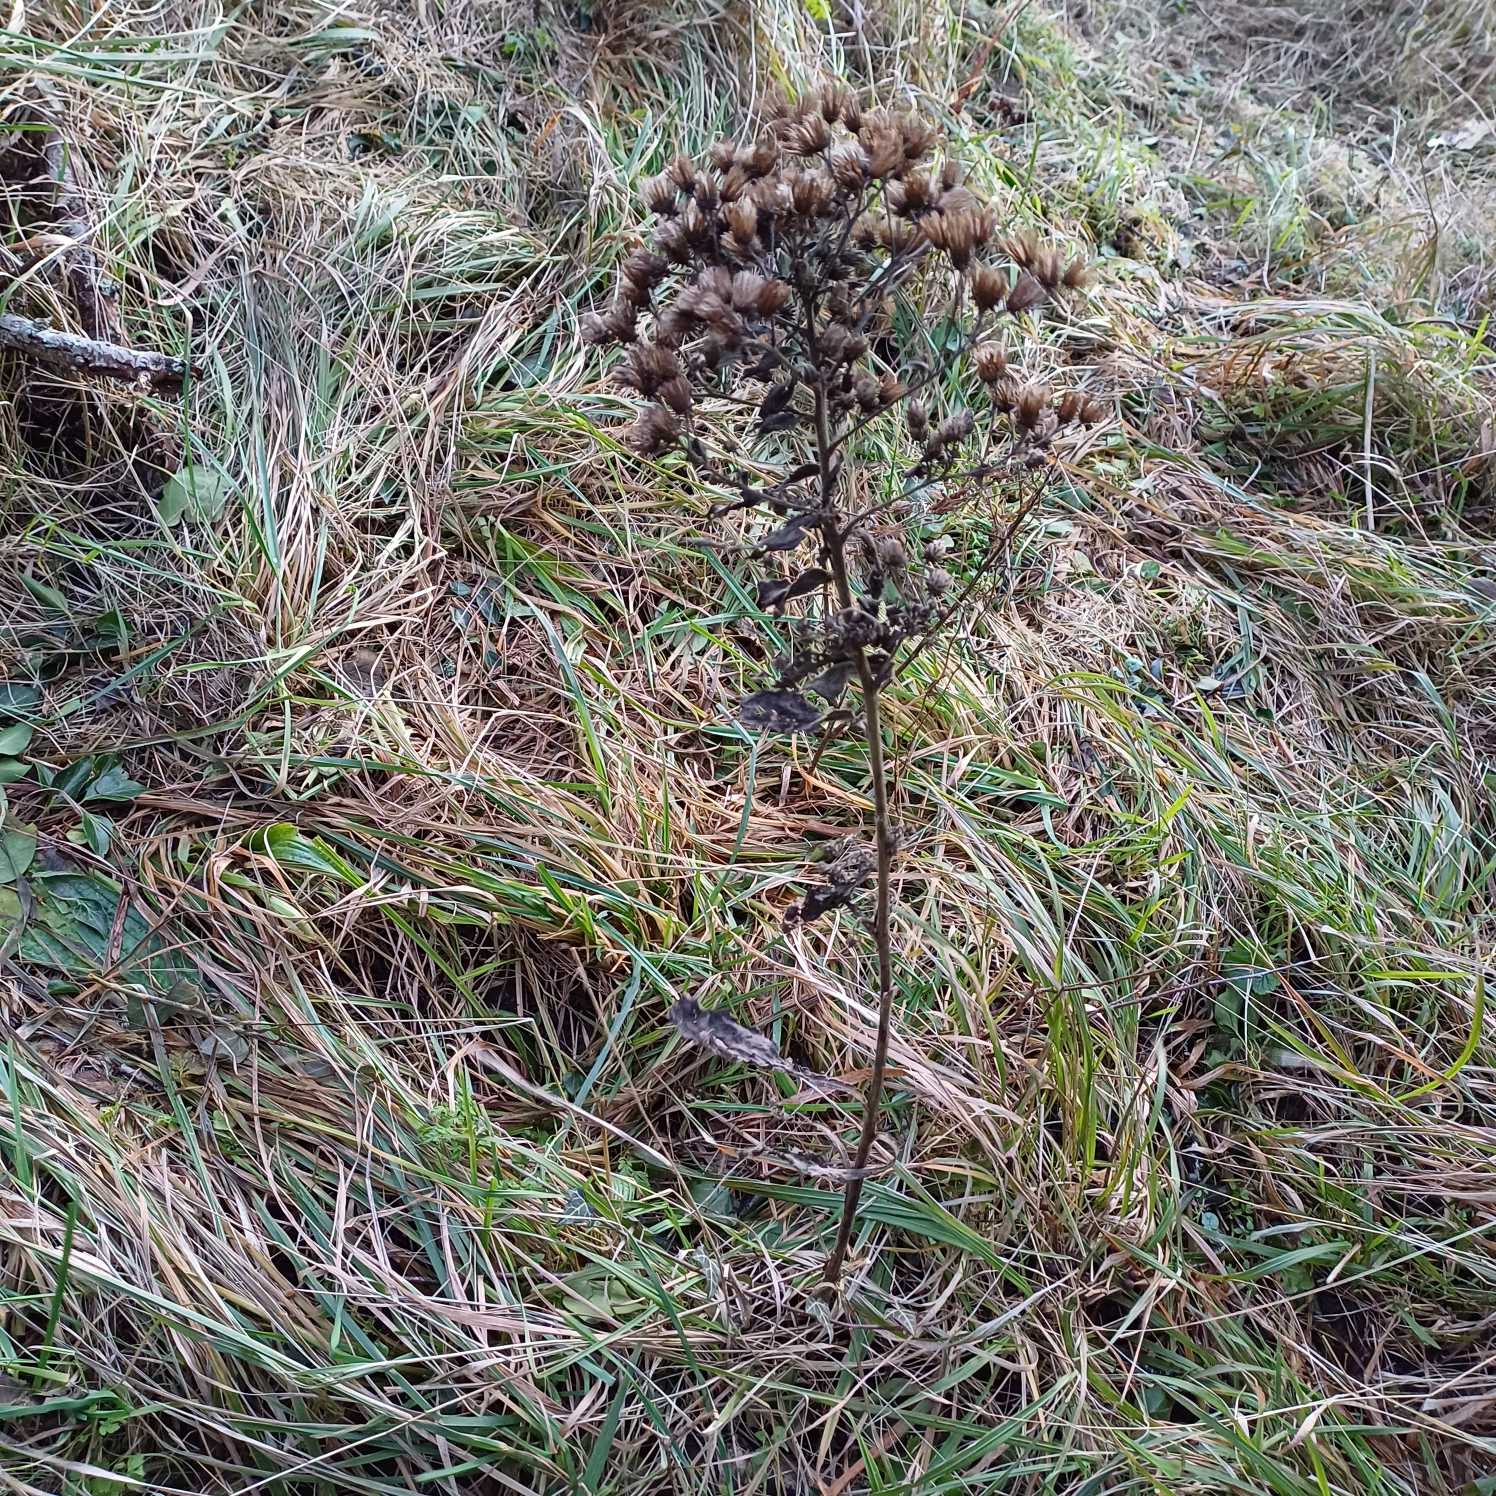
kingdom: Plantae
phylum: Tracheophyta
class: Magnoliopsida
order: Asterales
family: Asteraceae
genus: Pentanema
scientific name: Pentanema squarrosum
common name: Trekløft-alant
